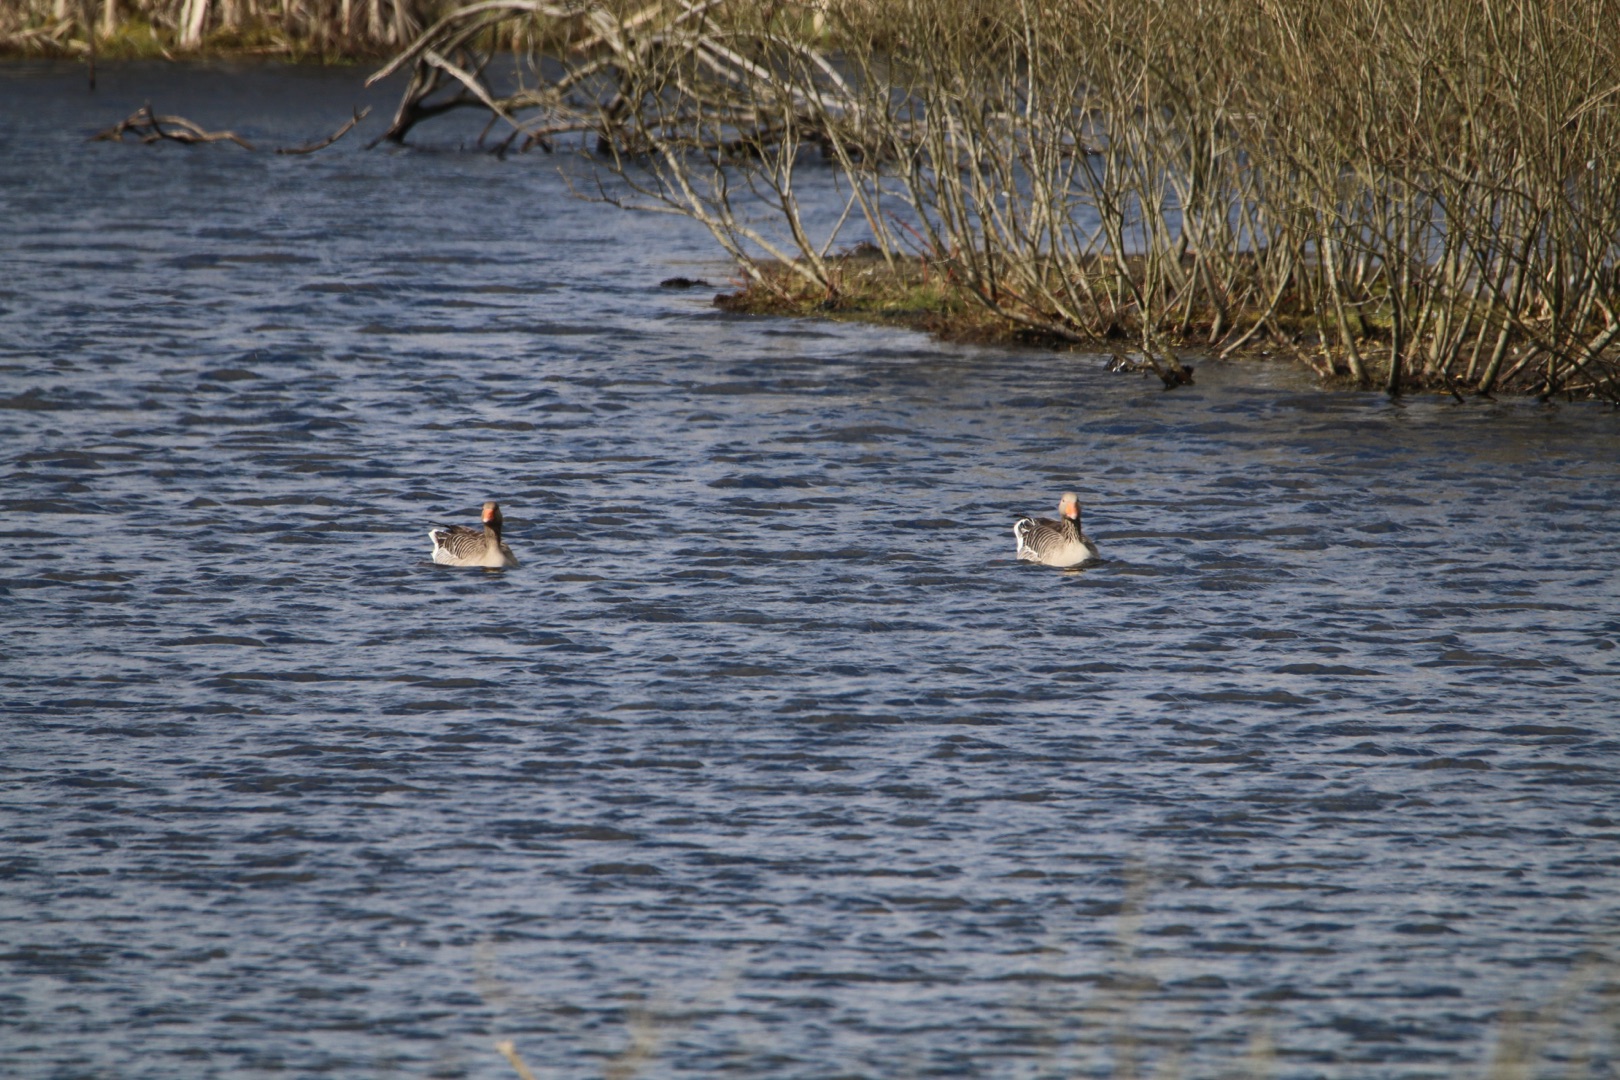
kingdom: Animalia
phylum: Chordata
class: Aves
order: Anseriformes
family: Anatidae
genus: Anser
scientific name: Anser anser
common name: Grågås
